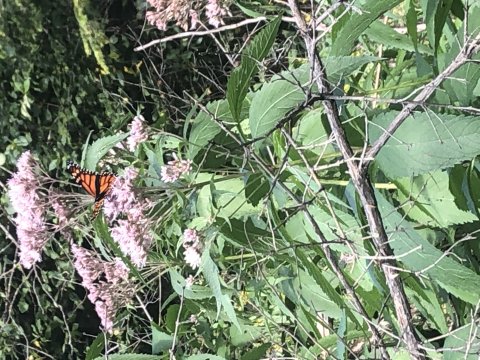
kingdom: Animalia
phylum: Arthropoda
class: Insecta
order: Lepidoptera
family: Nymphalidae
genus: Danaus
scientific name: Danaus plexippus
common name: Monarch
